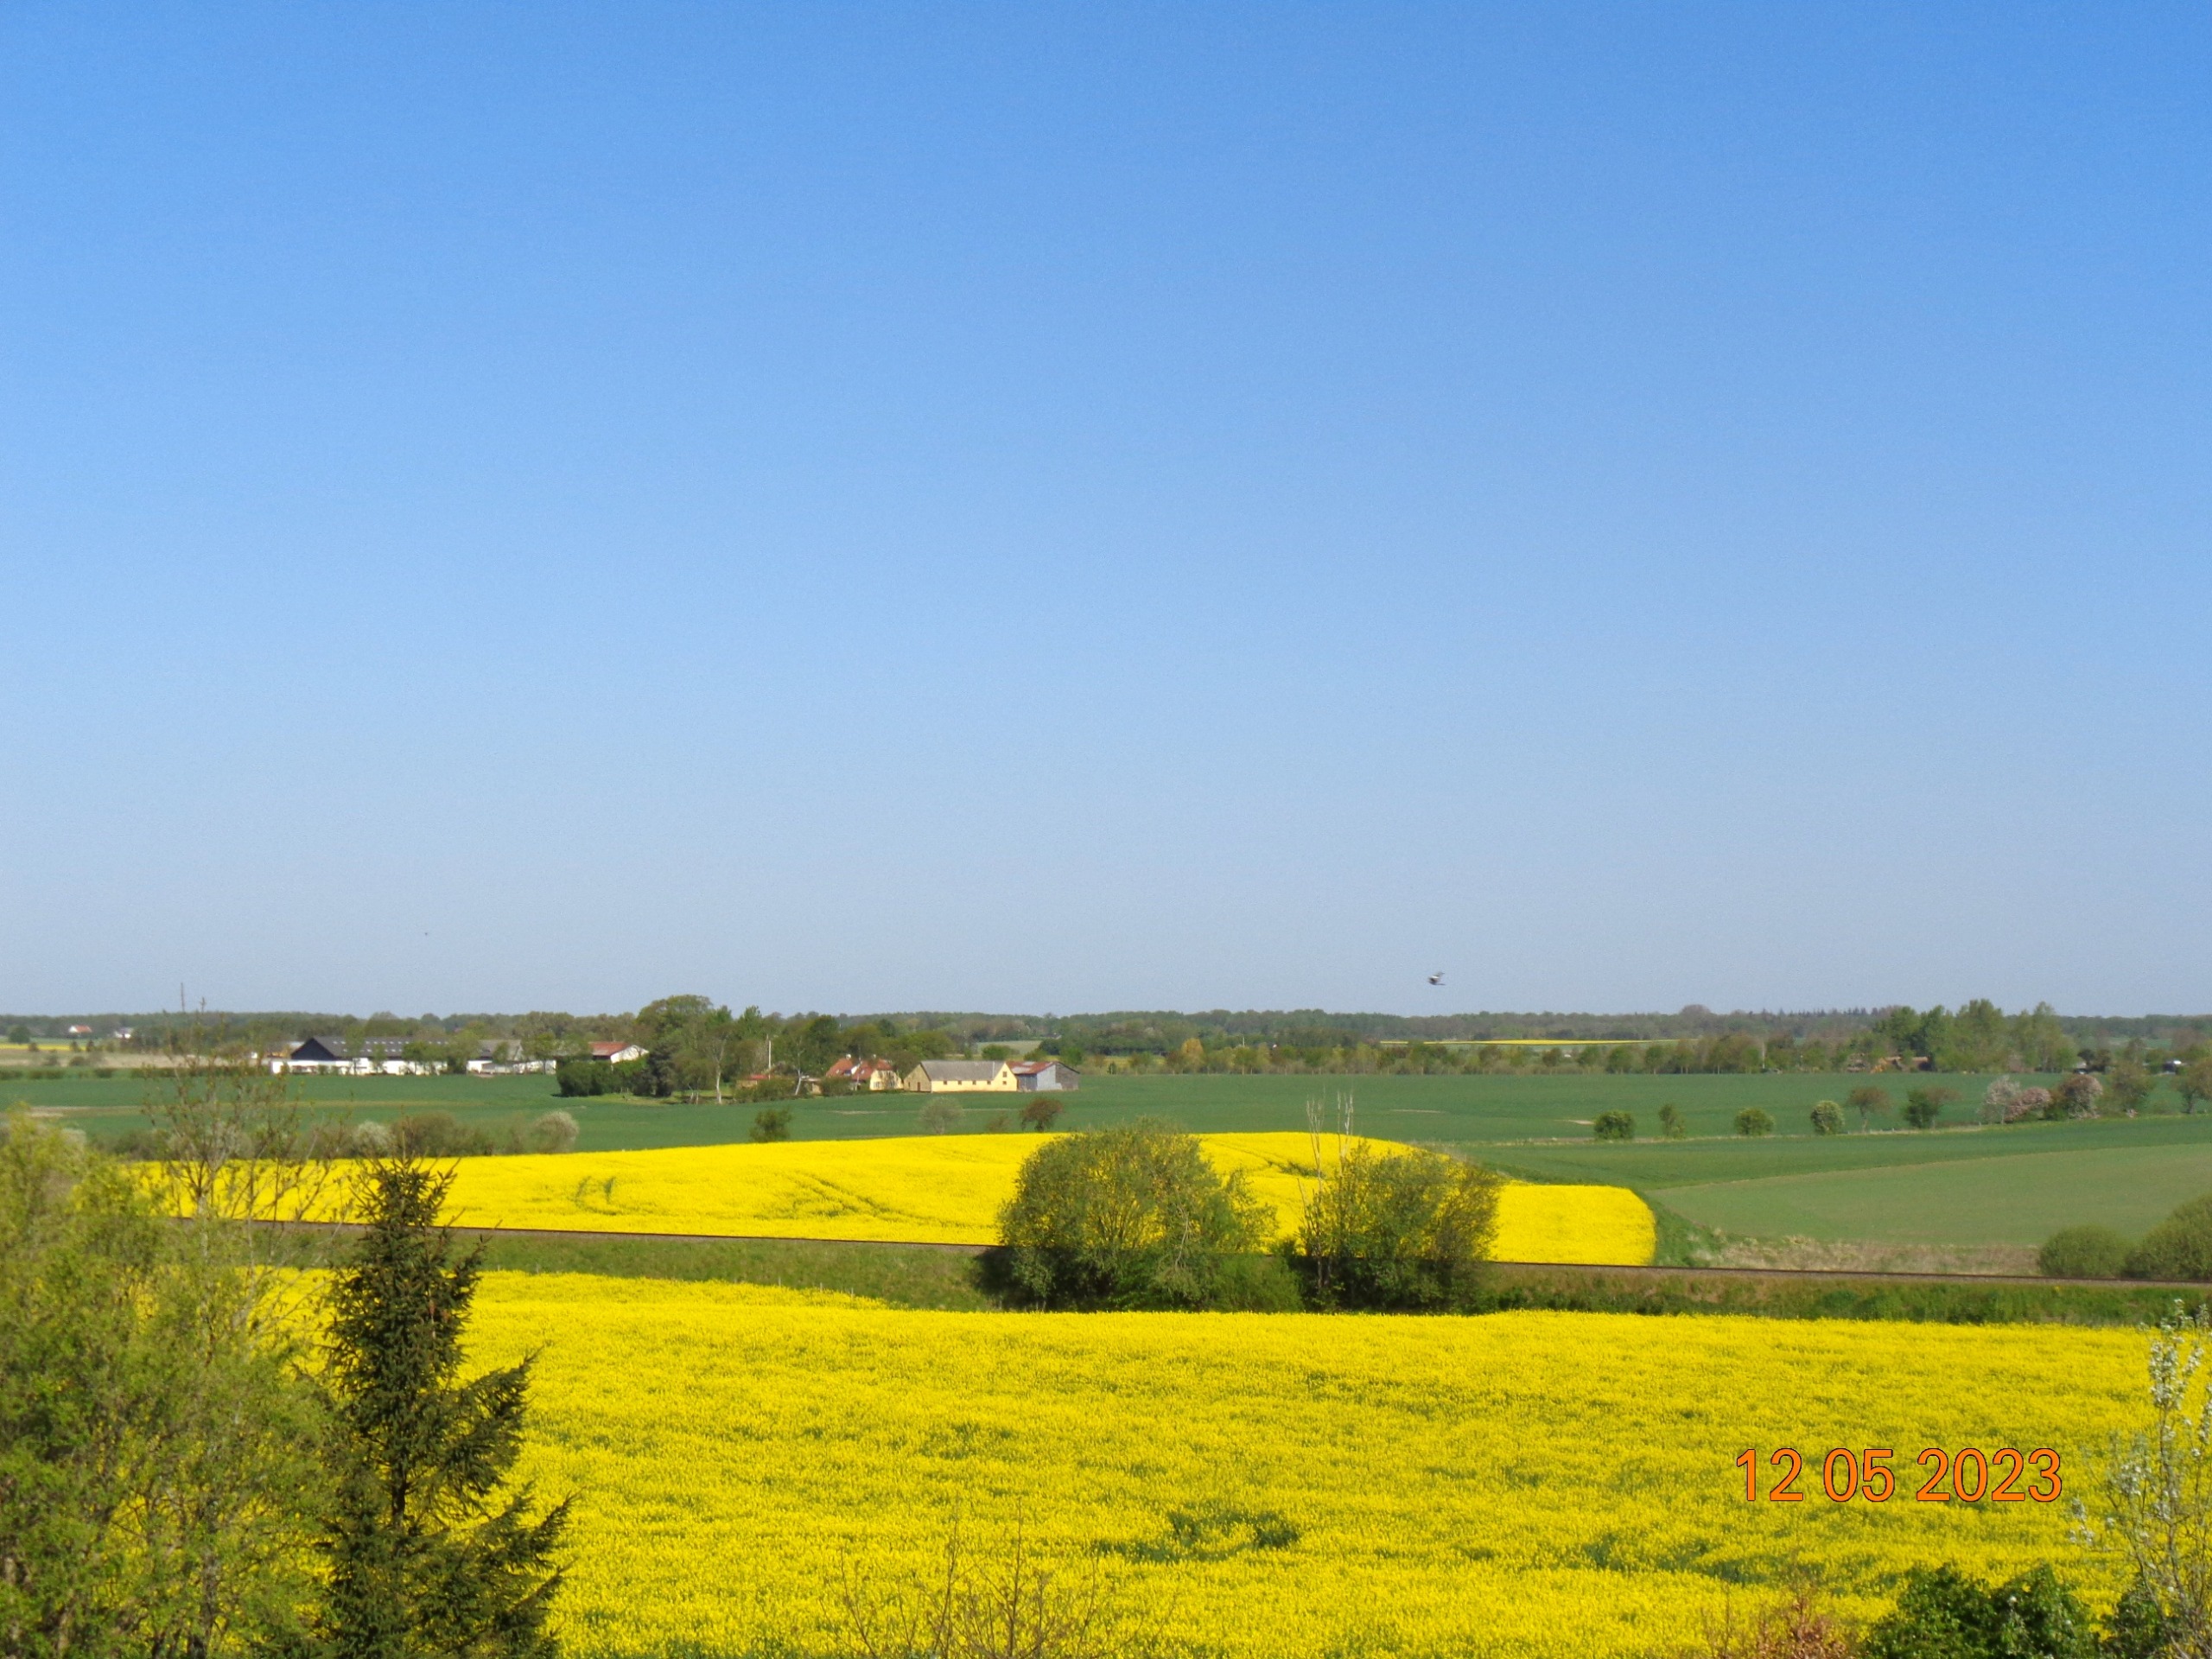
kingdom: Animalia
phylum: Chordata
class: Aves
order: Accipitriformes
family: Accipitridae
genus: Milvus
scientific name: Milvus milvus
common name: Rød glente
